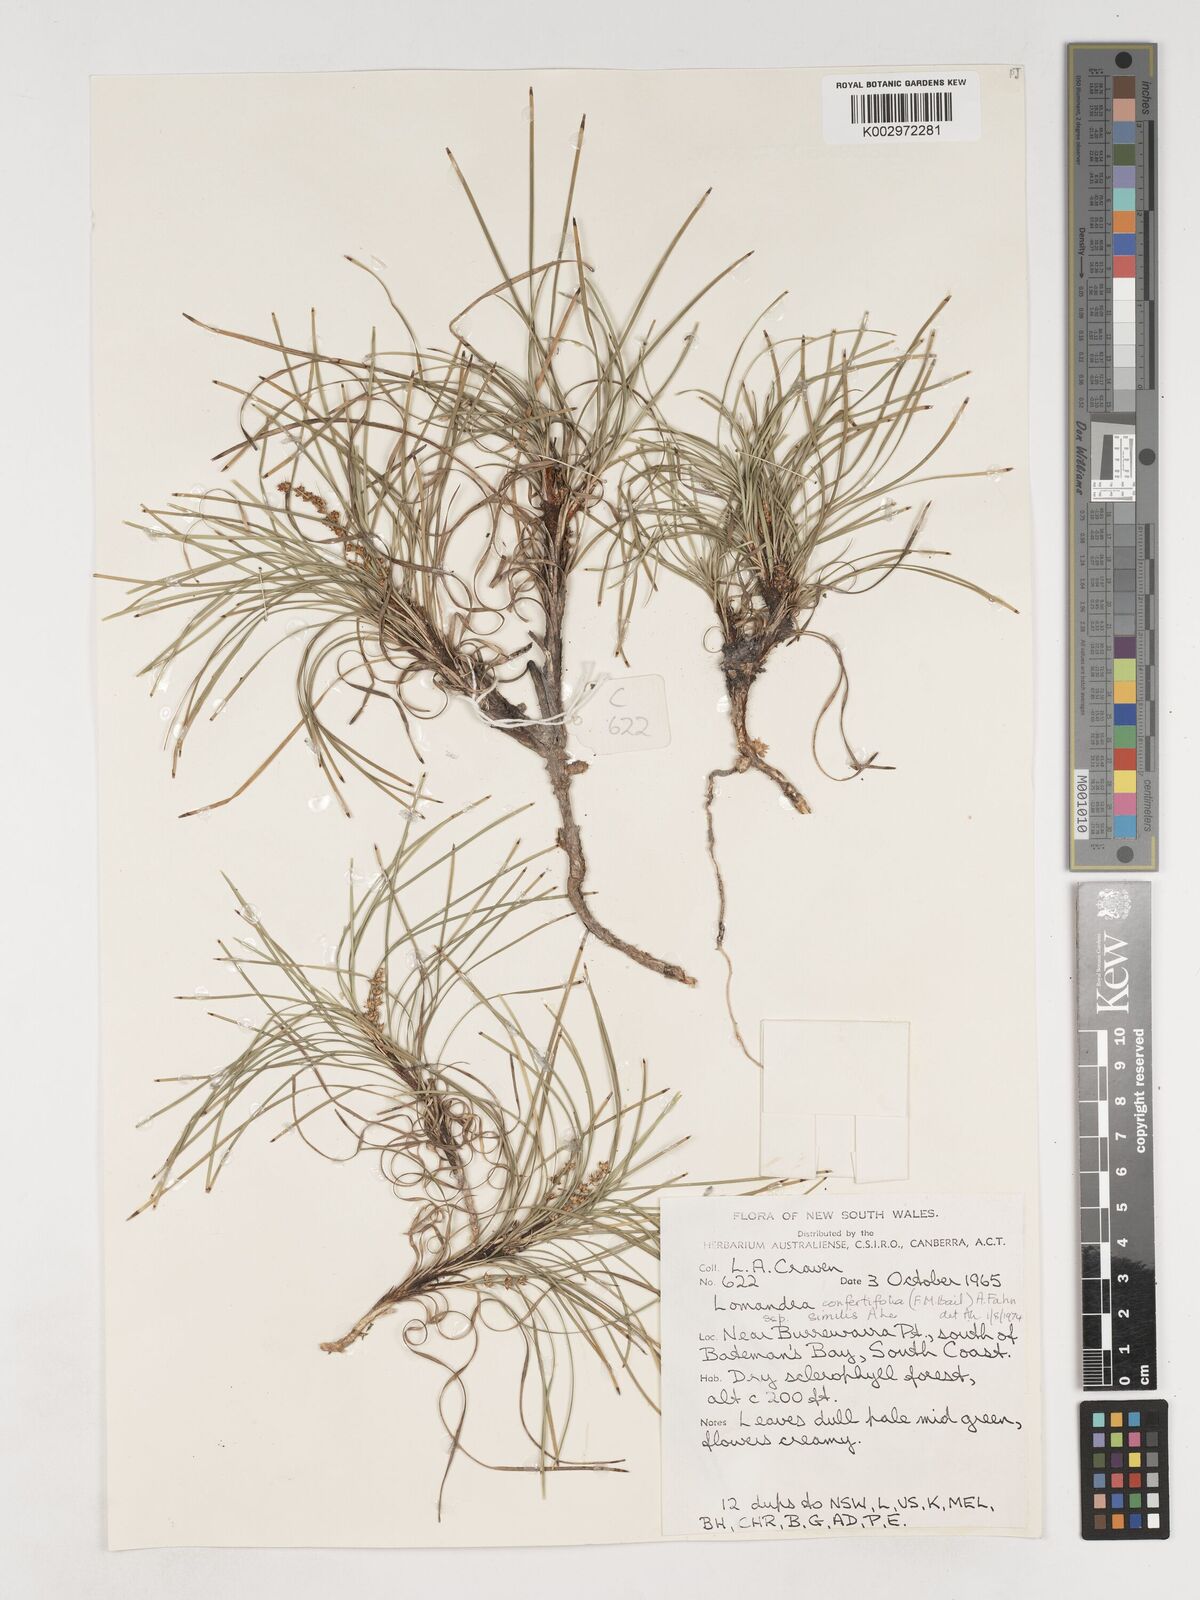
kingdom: Plantae
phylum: Tracheophyta
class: Liliopsida
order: Asparagales
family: Asparagaceae
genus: Lomandra
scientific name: Lomandra
